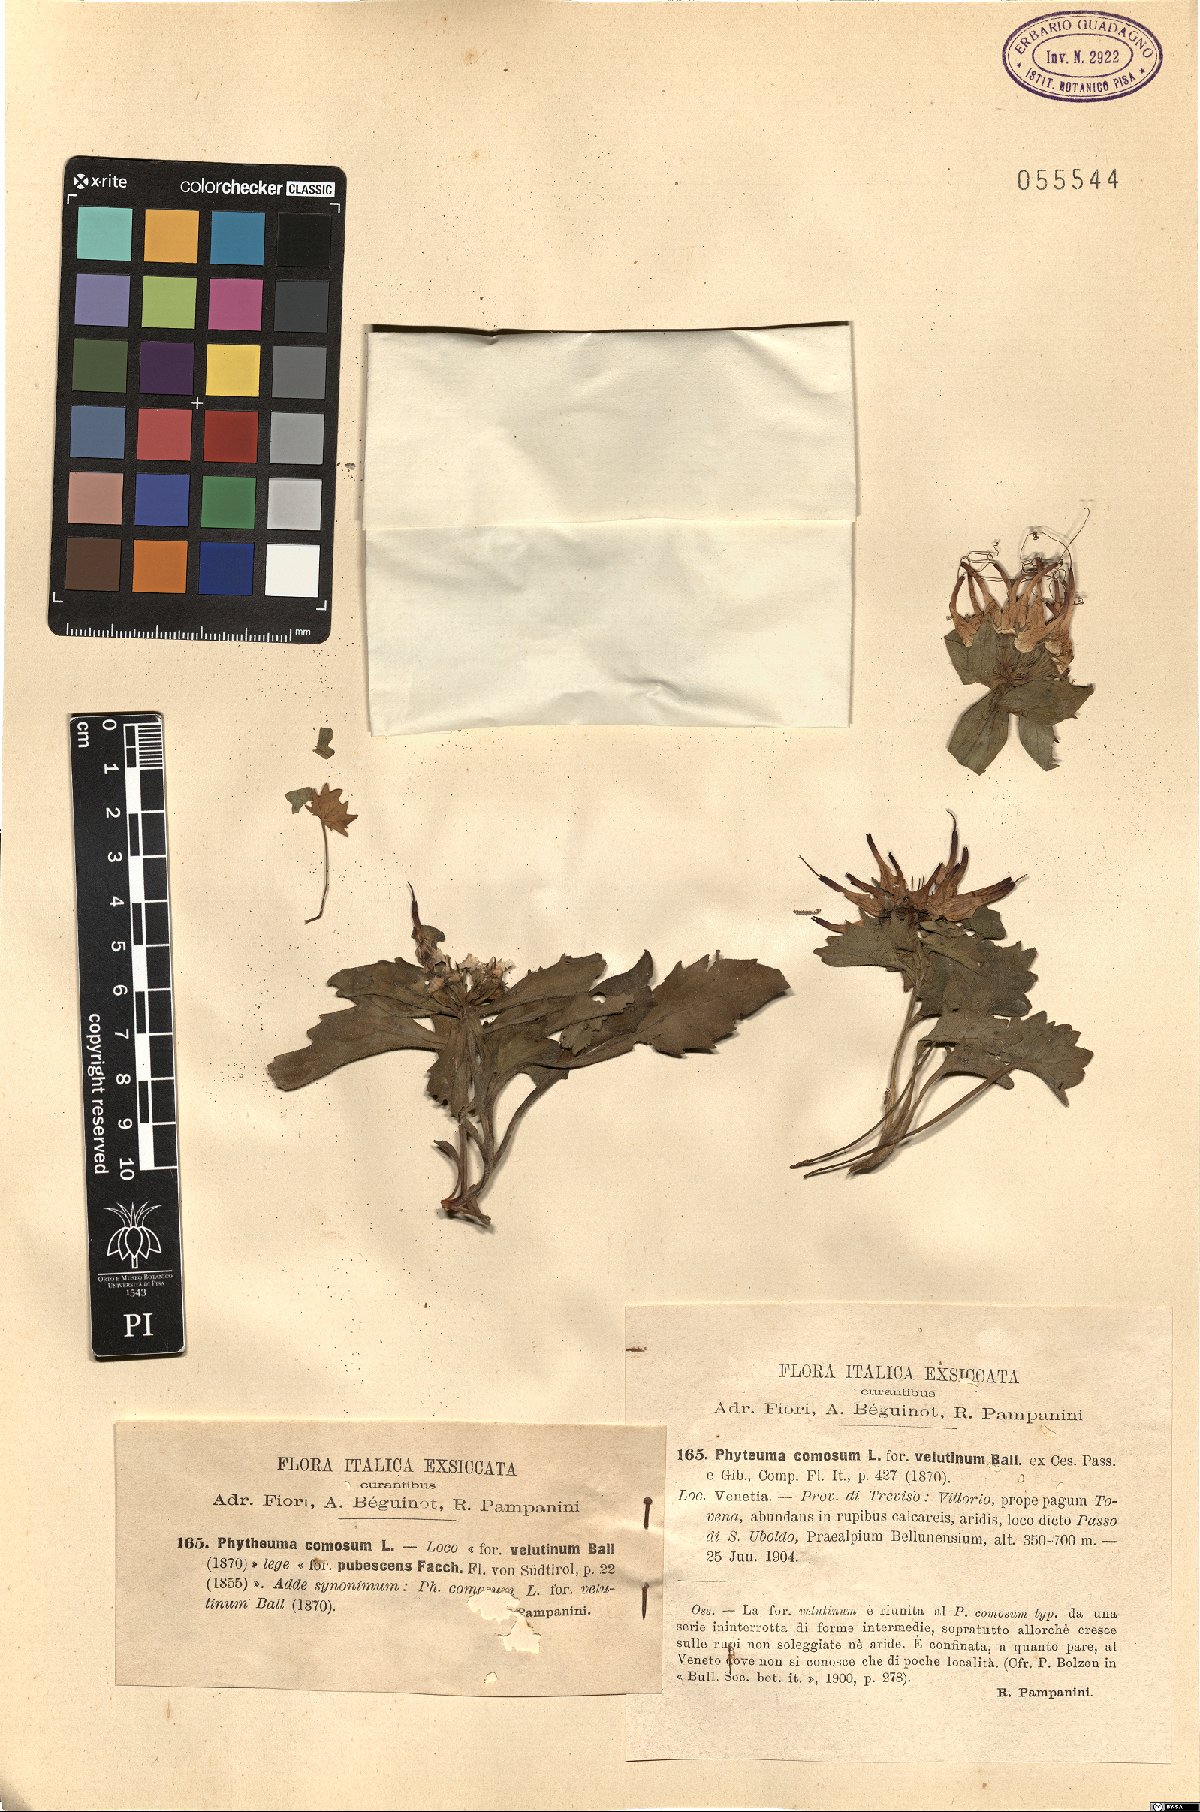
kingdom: Plantae
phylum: Tracheophyta
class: Magnoliopsida
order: Asterales
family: Campanulaceae
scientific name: Campanulaceae
